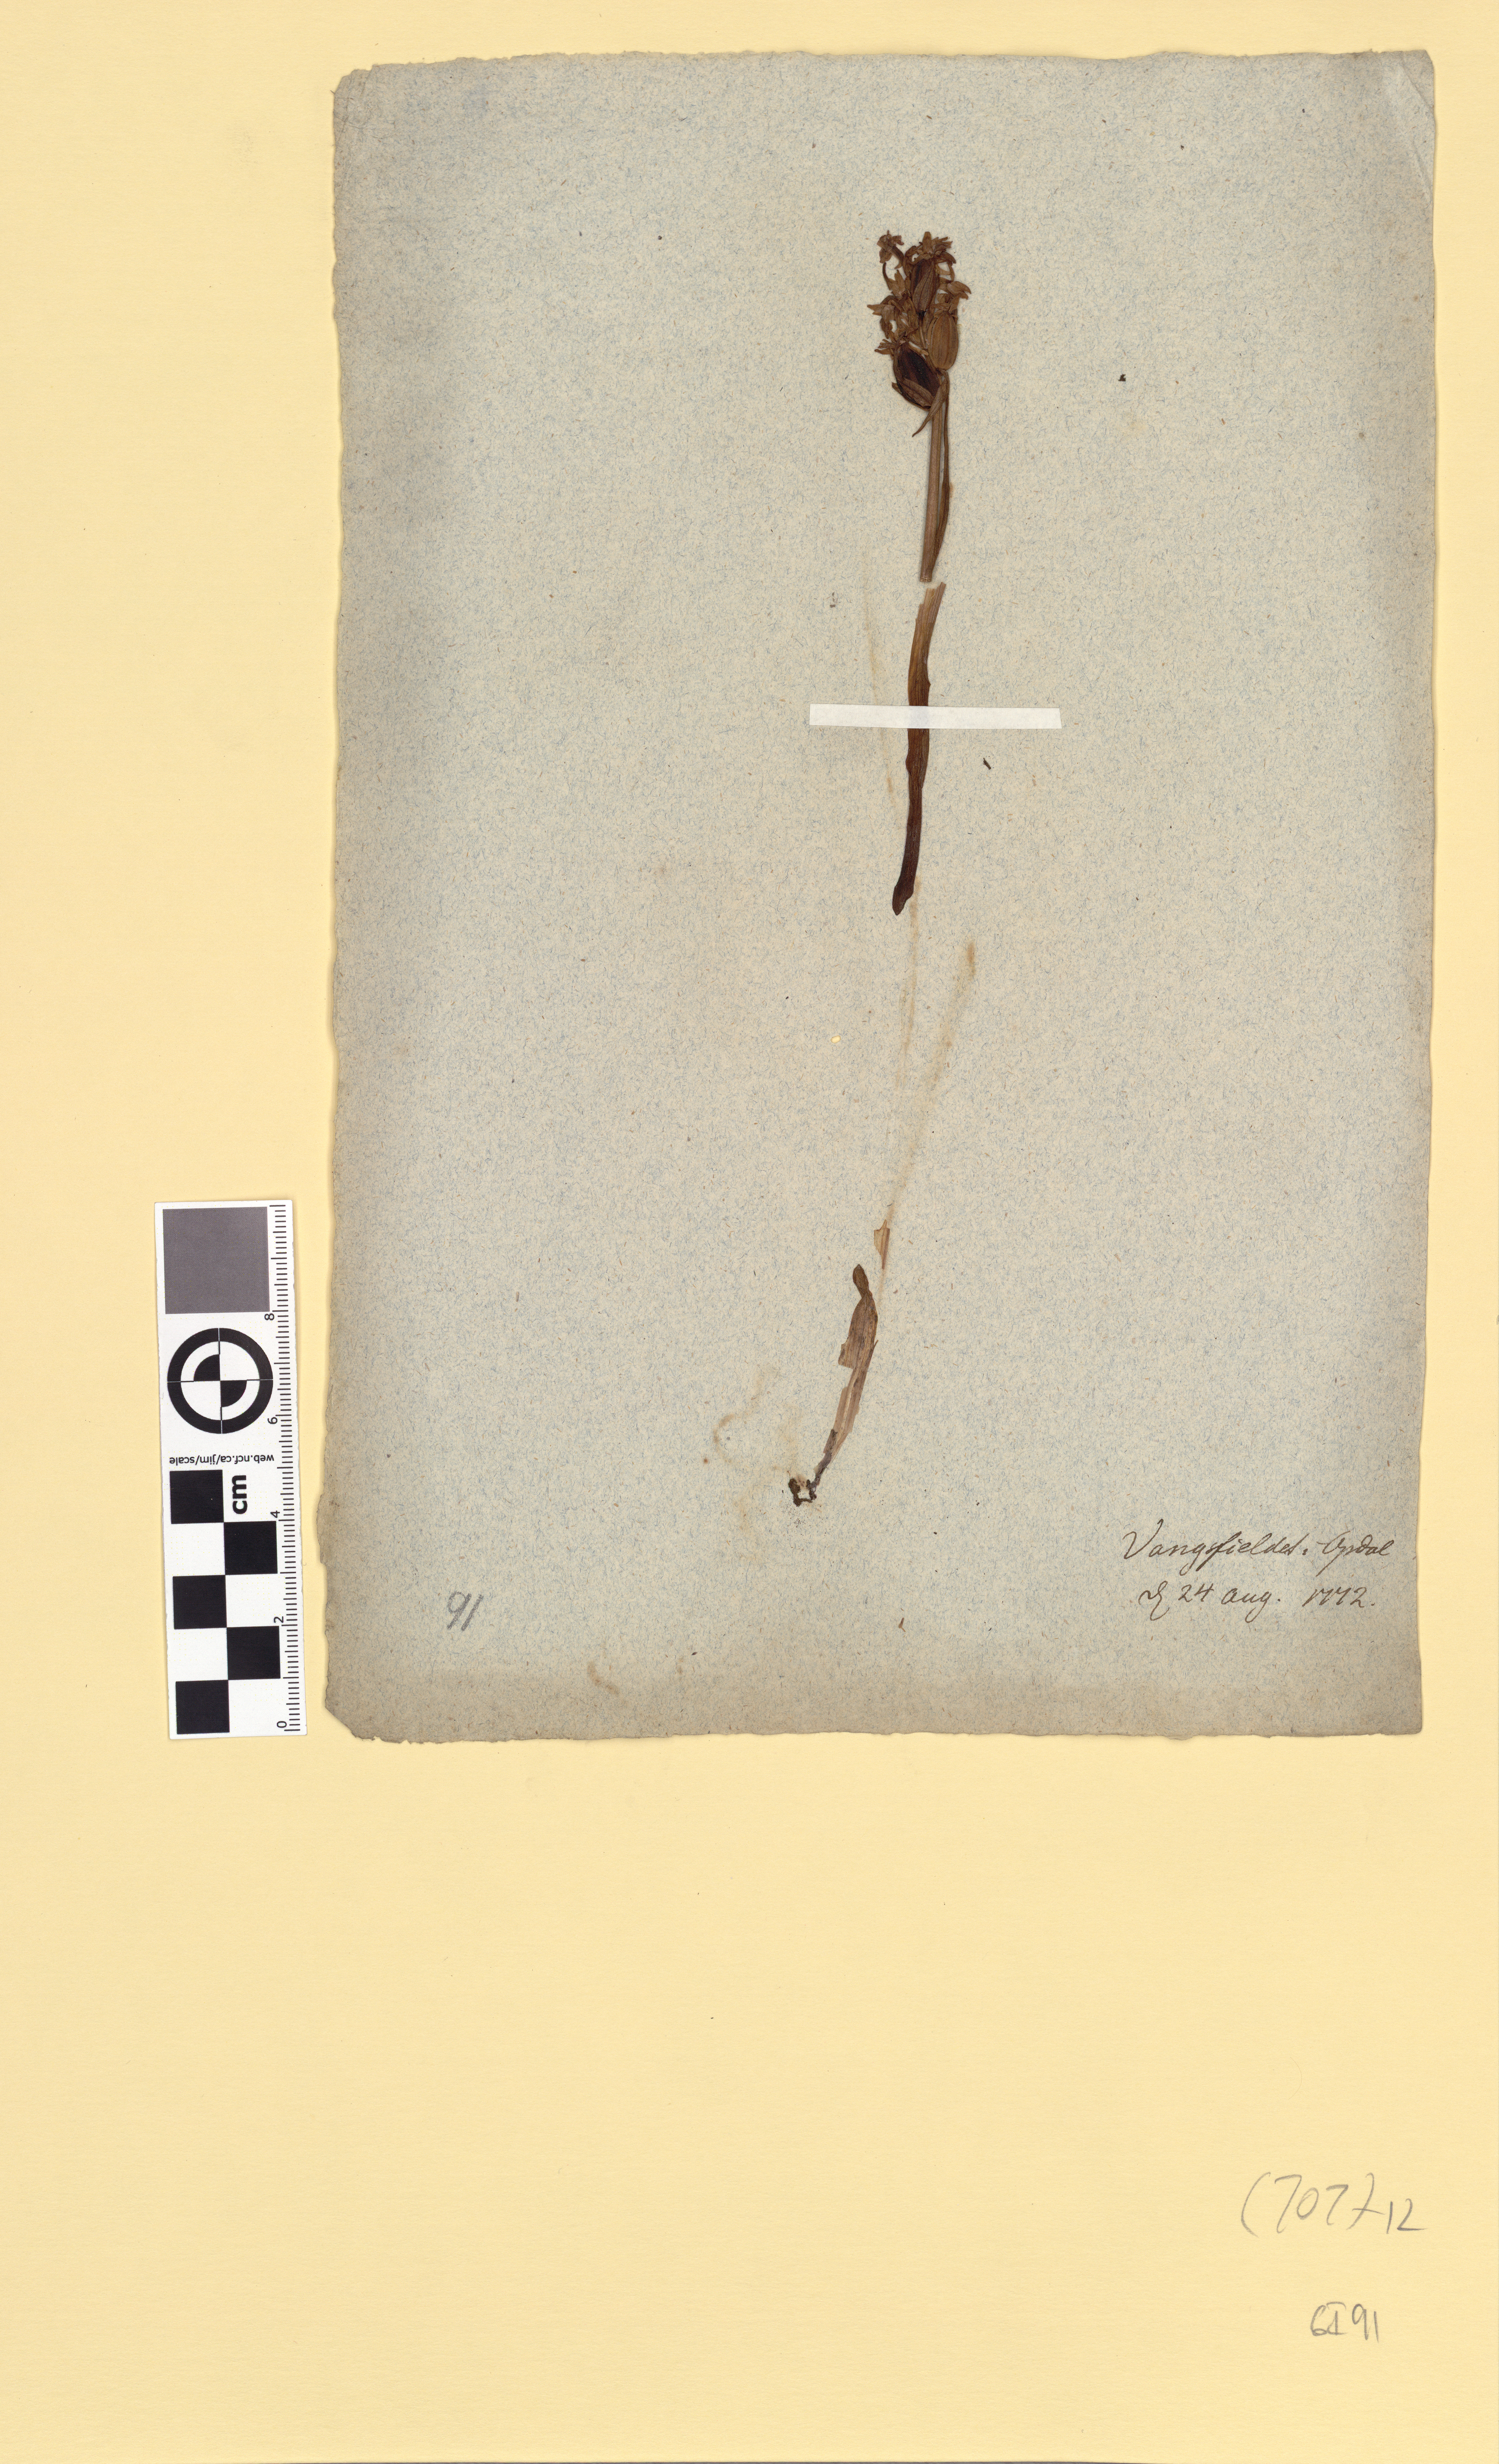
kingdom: Plantae
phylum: Tracheophyta
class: Liliopsida
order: Asparagales
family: Orchidaceae
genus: Dactylorhiza
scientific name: Dactylorhiza maculata
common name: Heath spotted-orchid
